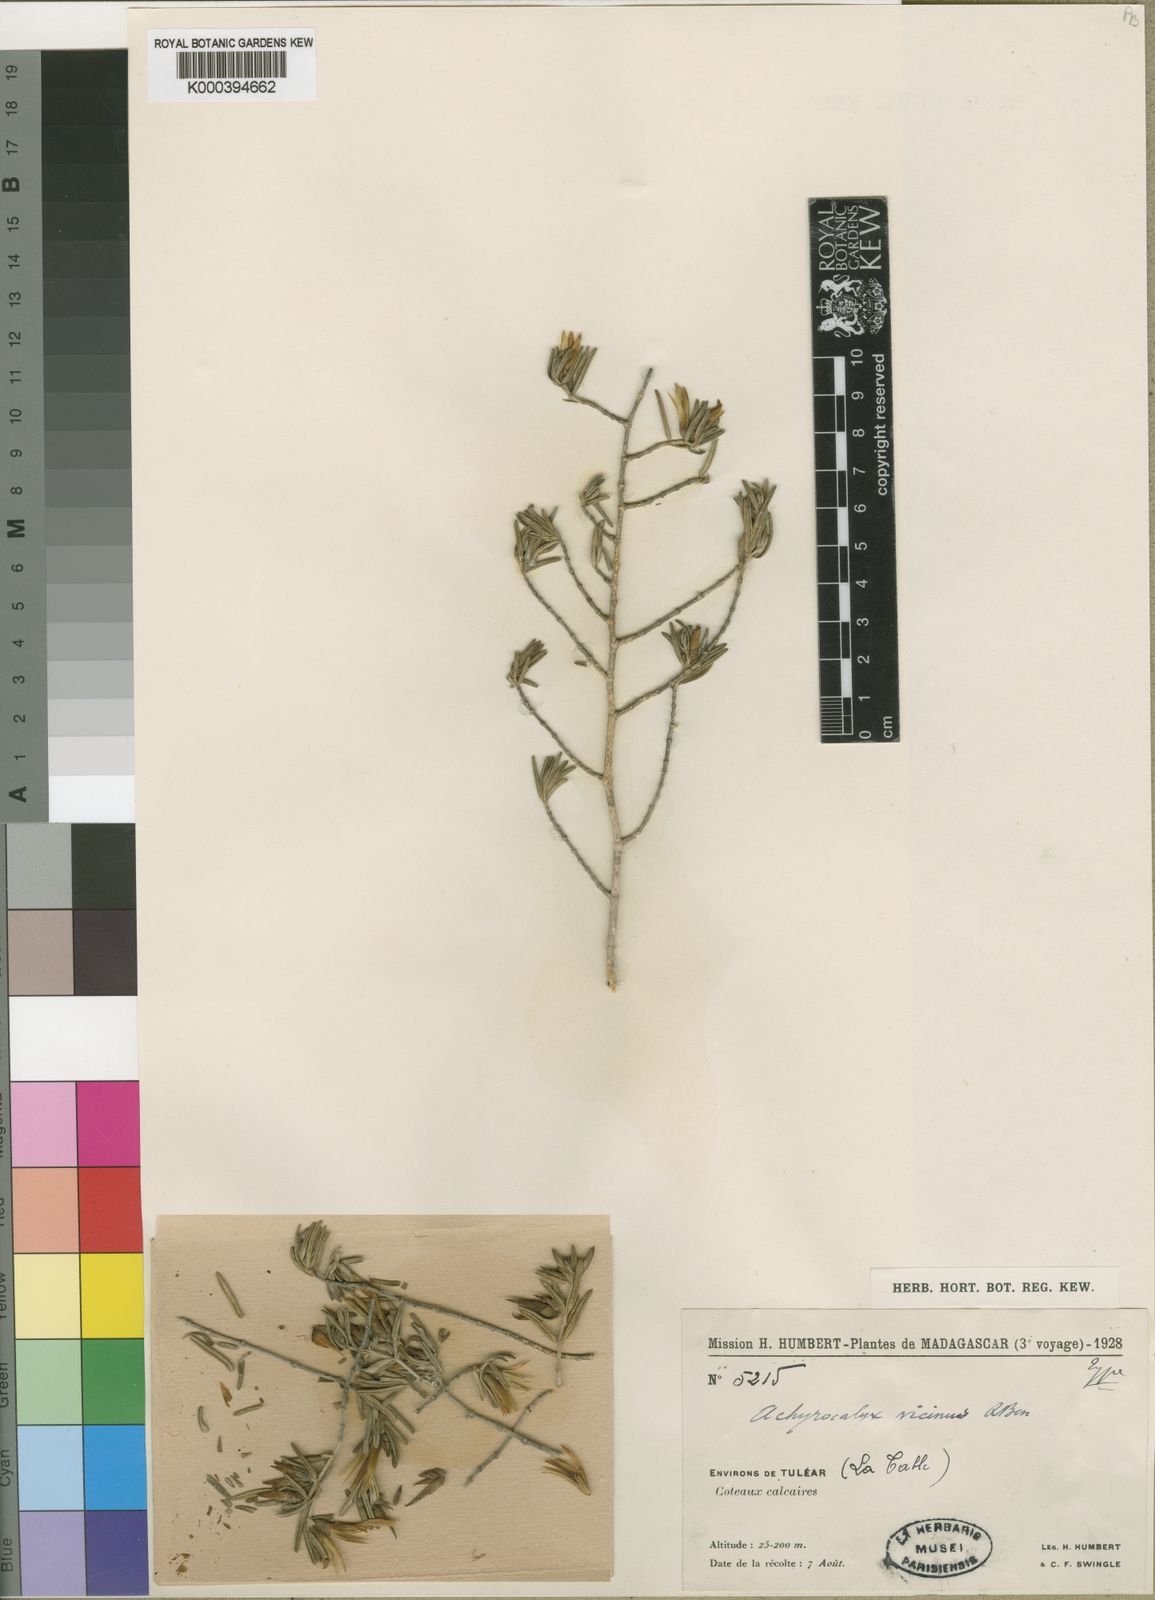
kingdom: Plantae
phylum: Tracheophyta
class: Magnoliopsida
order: Lamiales
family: Acanthaceae
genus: Stenandriopsis
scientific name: Stenandriopsis decaryi
